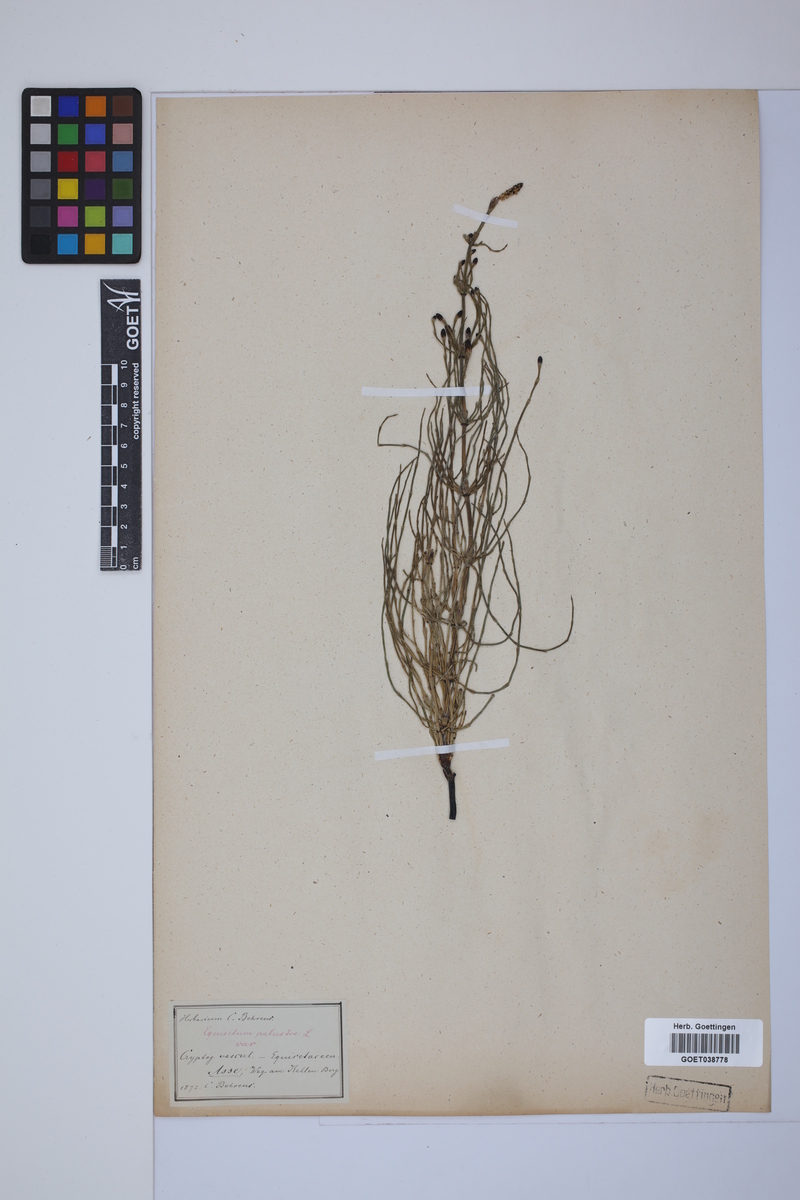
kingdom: Plantae
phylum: Tracheophyta
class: Polypodiopsida
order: Equisetales
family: Equisetaceae
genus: Equisetum
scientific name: Equisetum palustre
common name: Marsh horsetail
